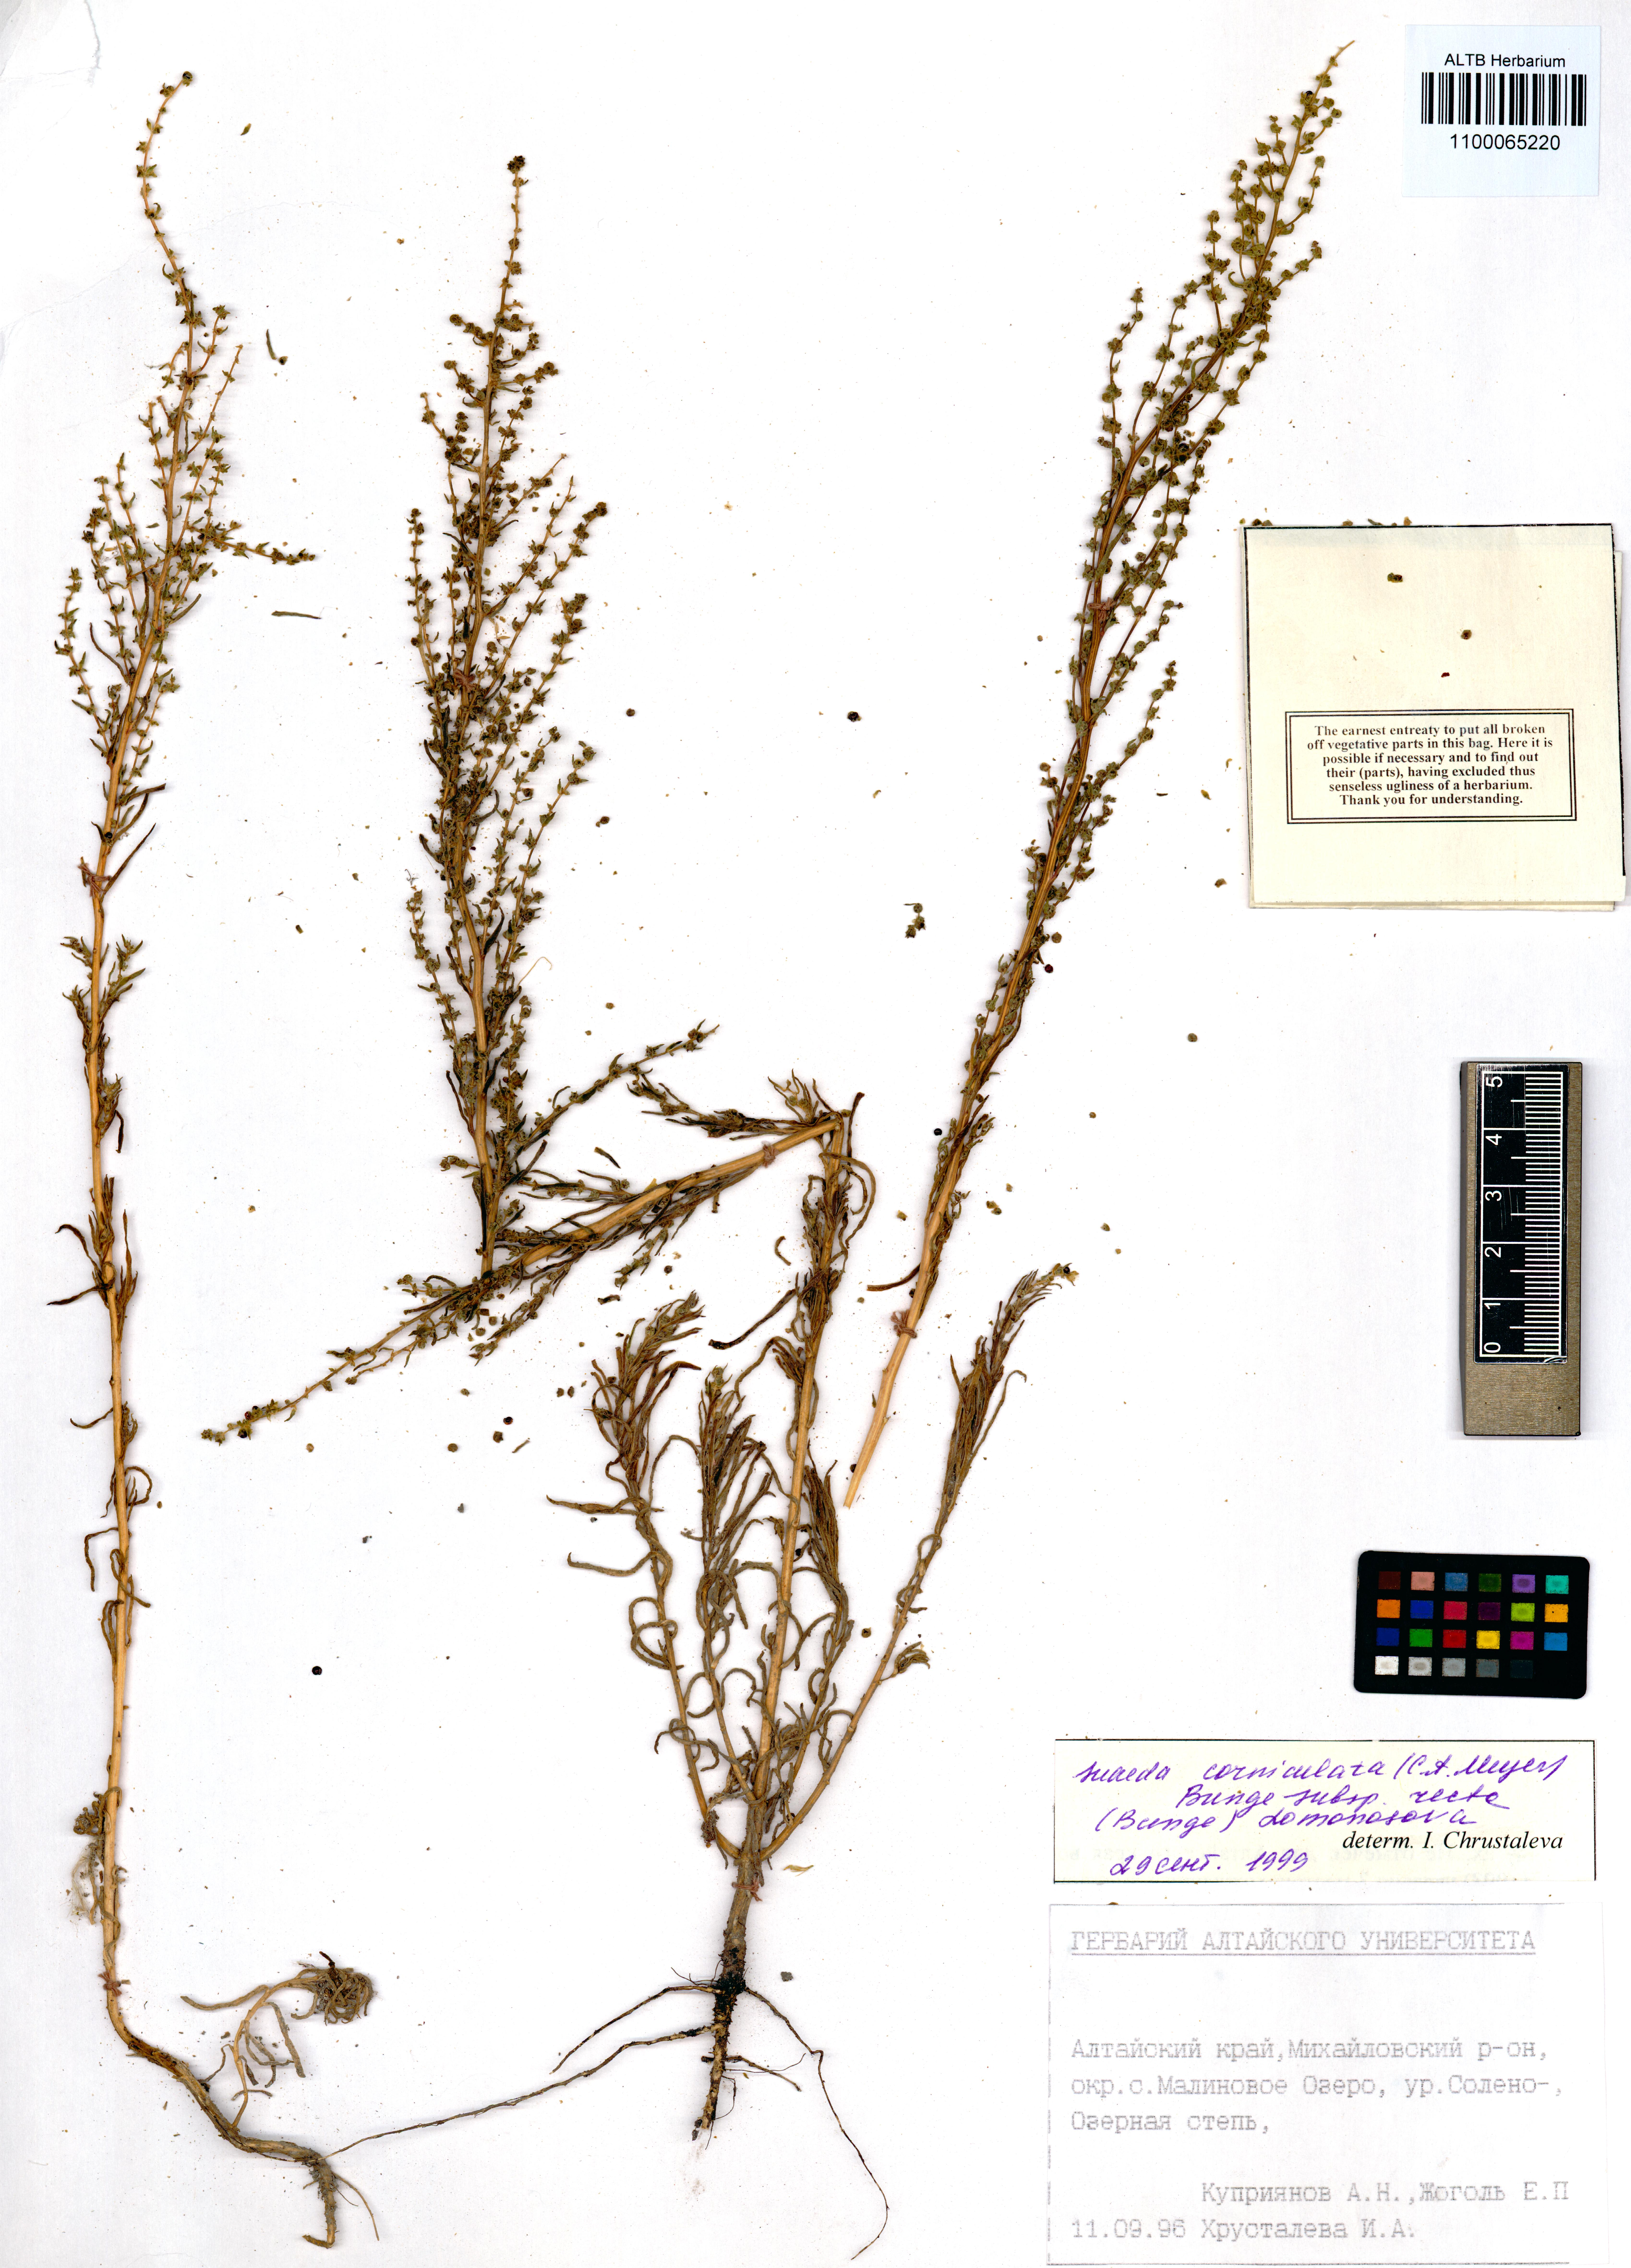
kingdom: Plantae
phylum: Tracheophyta
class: Magnoliopsida
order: Caryophyllales
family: Amaranthaceae
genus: Suaeda
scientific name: Suaeda corniculata
